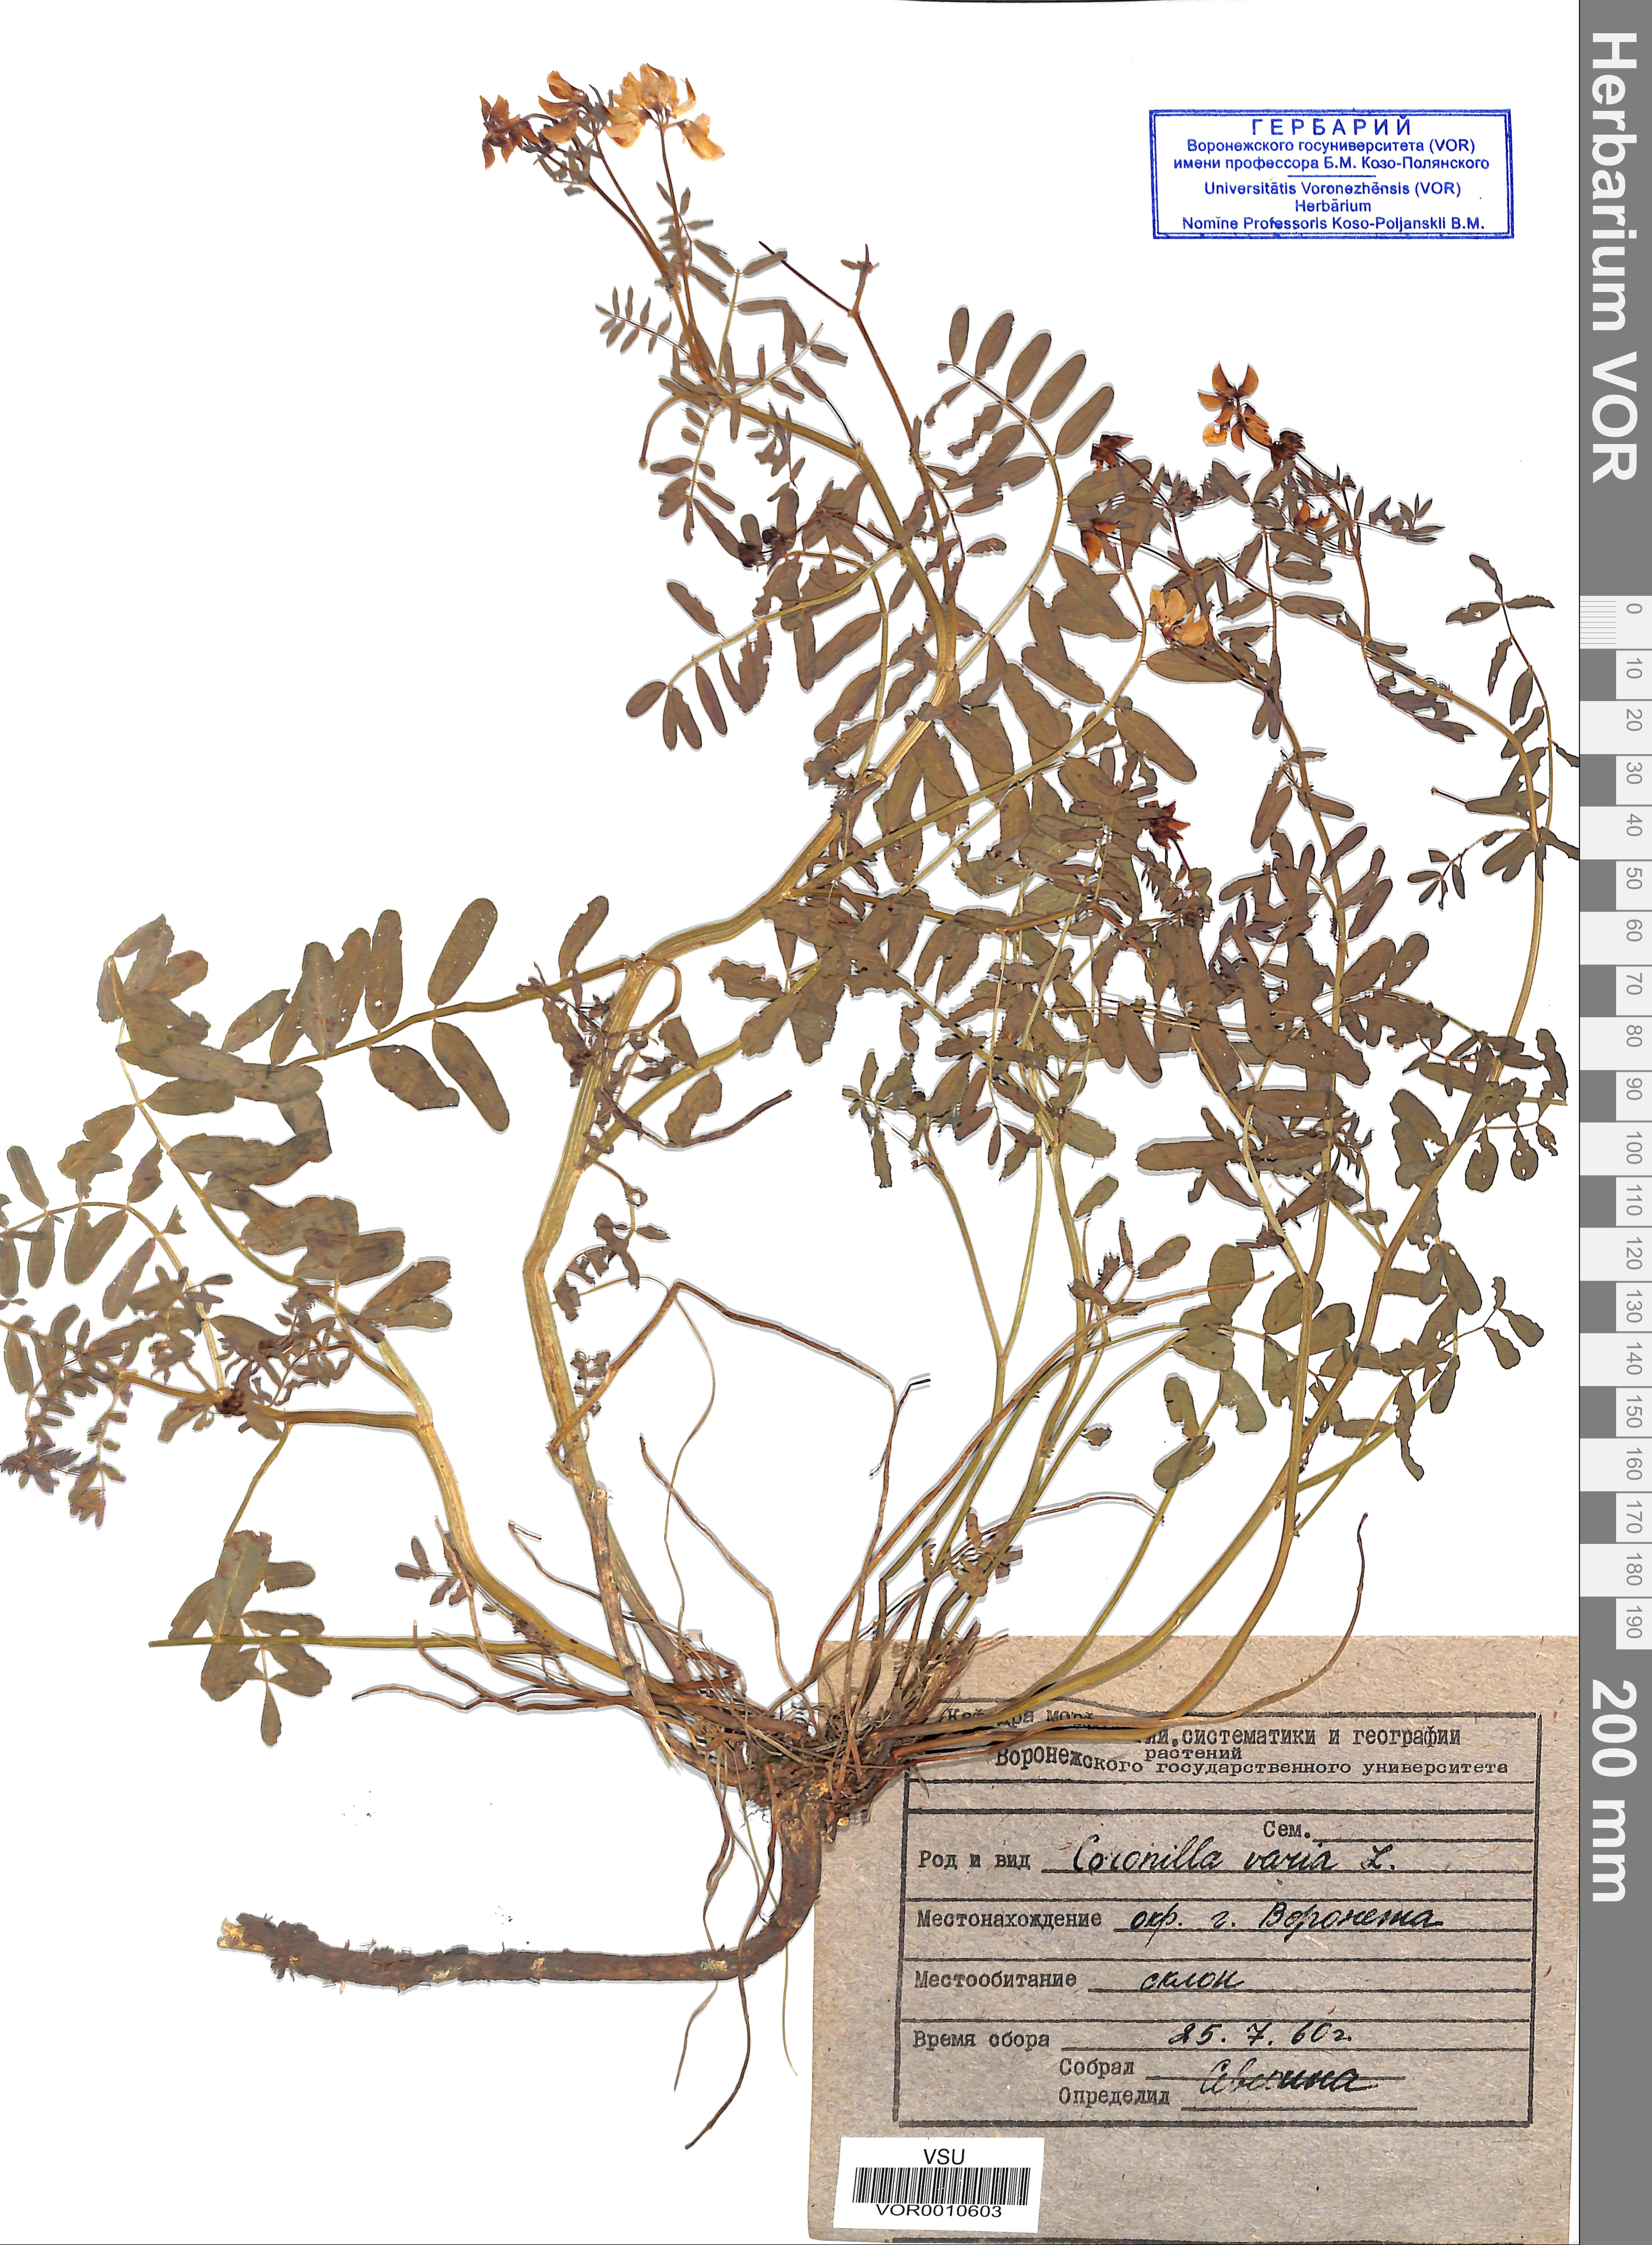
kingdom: Plantae
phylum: Tracheophyta
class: Magnoliopsida
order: Fabales
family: Fabaceae
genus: Coronilla
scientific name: Coronilla varia
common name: Crownvetch
